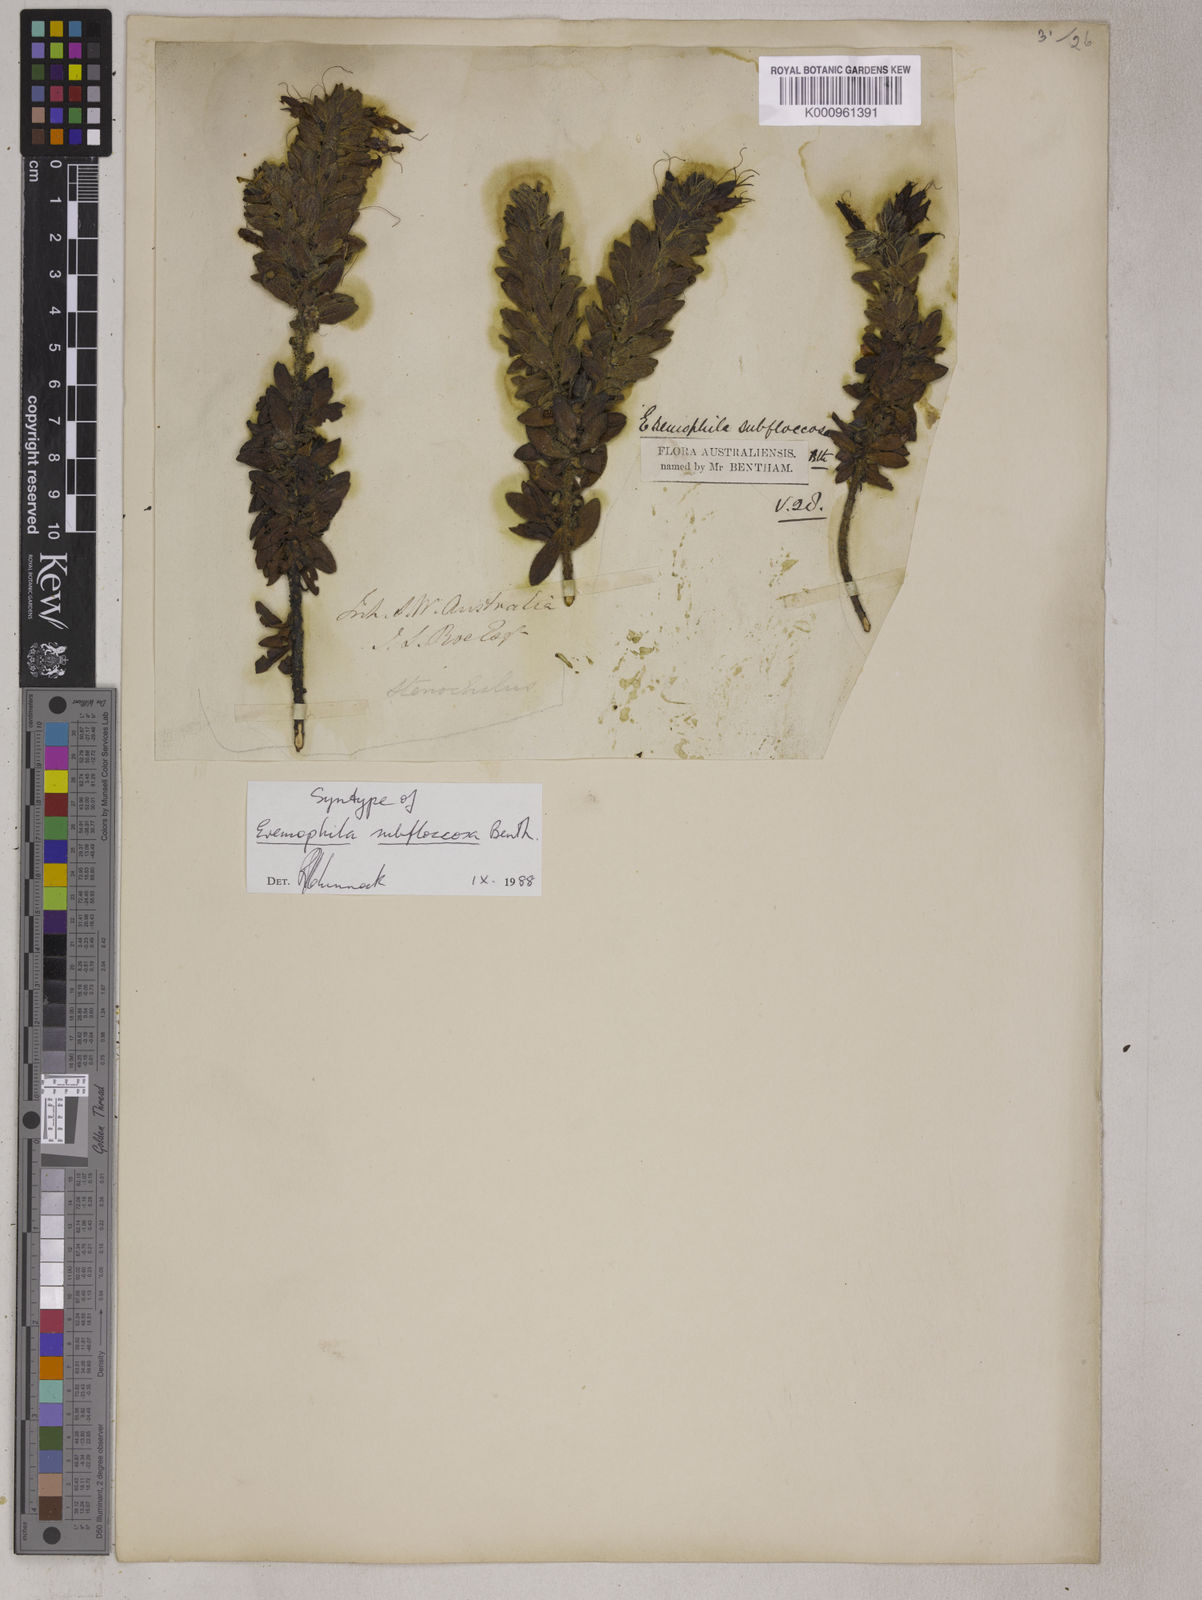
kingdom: Plantae
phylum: Tracheophyta
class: Magnoliopsida
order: Lamiales
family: Scrophulariaceae
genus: Eremophila
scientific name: Eremophila subfloccosa
